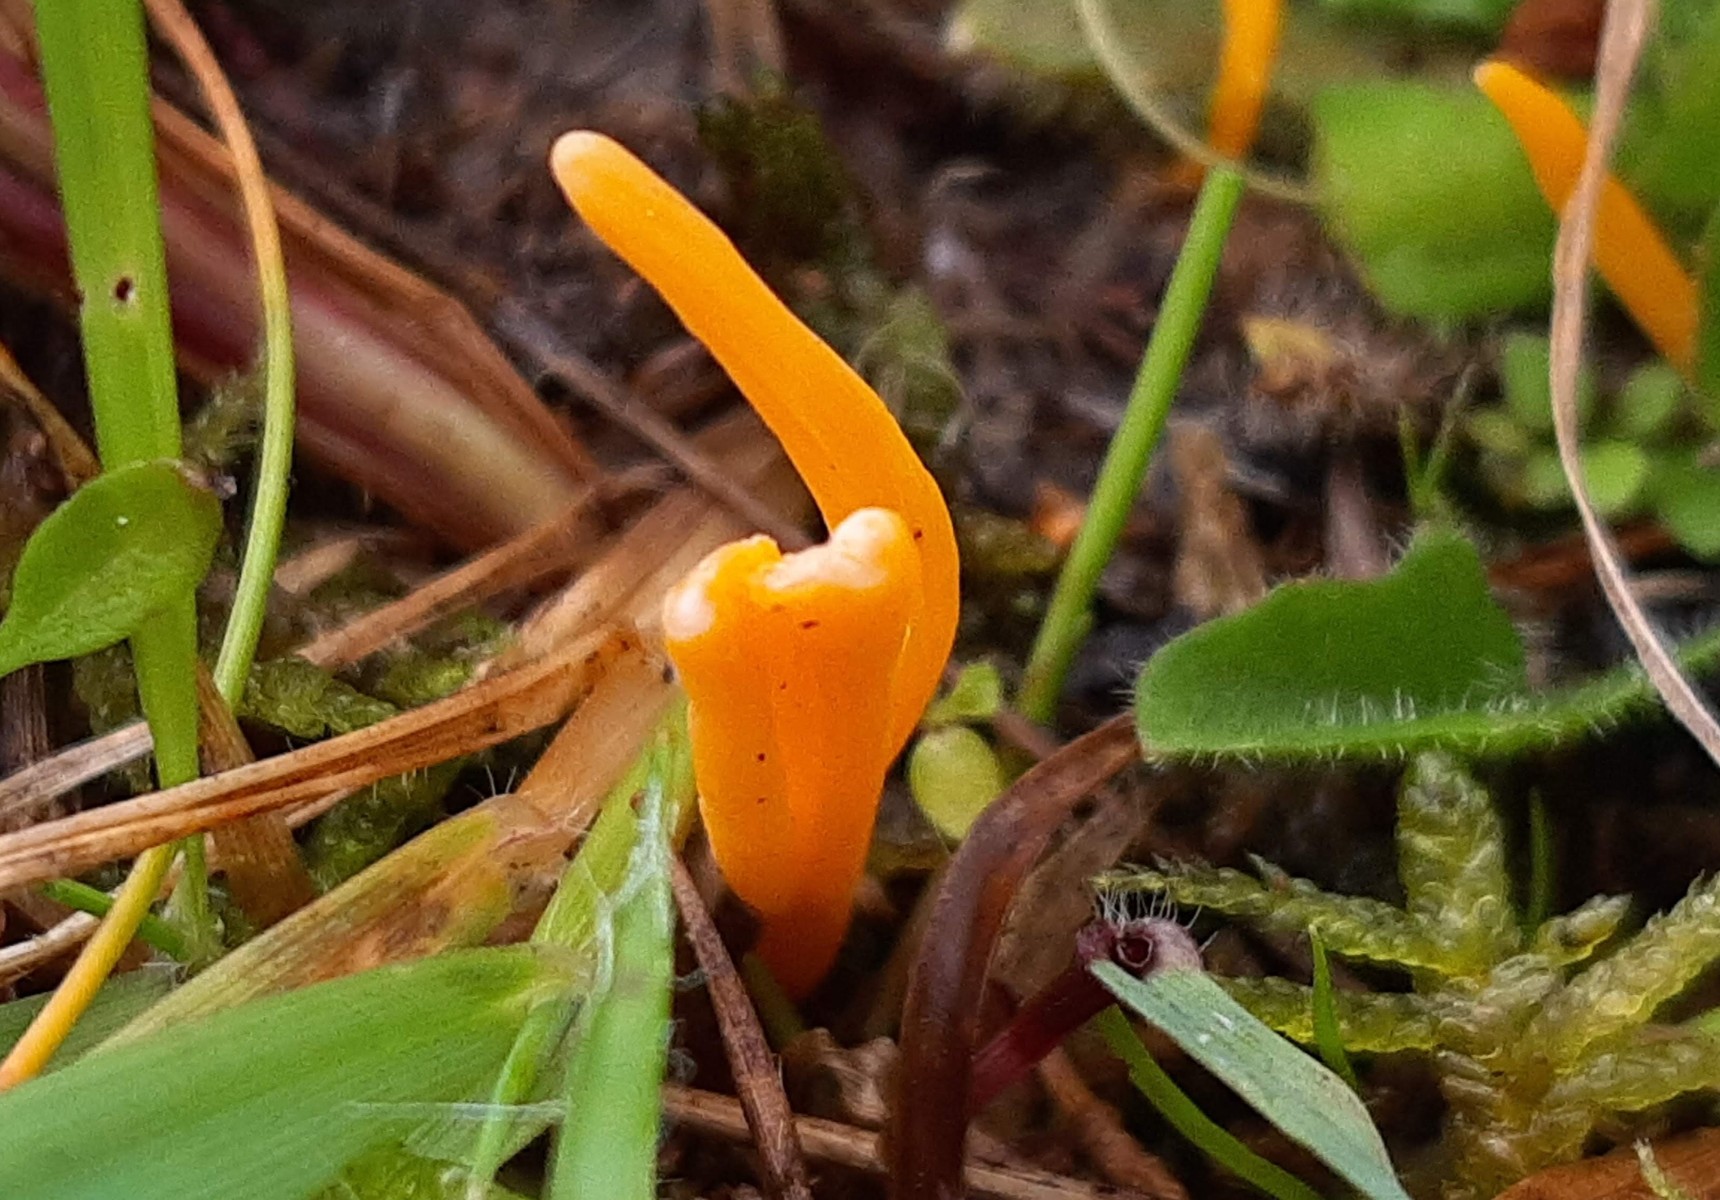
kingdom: Fungi
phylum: Basidiomycota
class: Agaricomycetes
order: Agaricales
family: Clavariaceae
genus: Clavulinopsis
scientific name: Clavulinopsis luteoalba
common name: abrikos-køllesvamp
